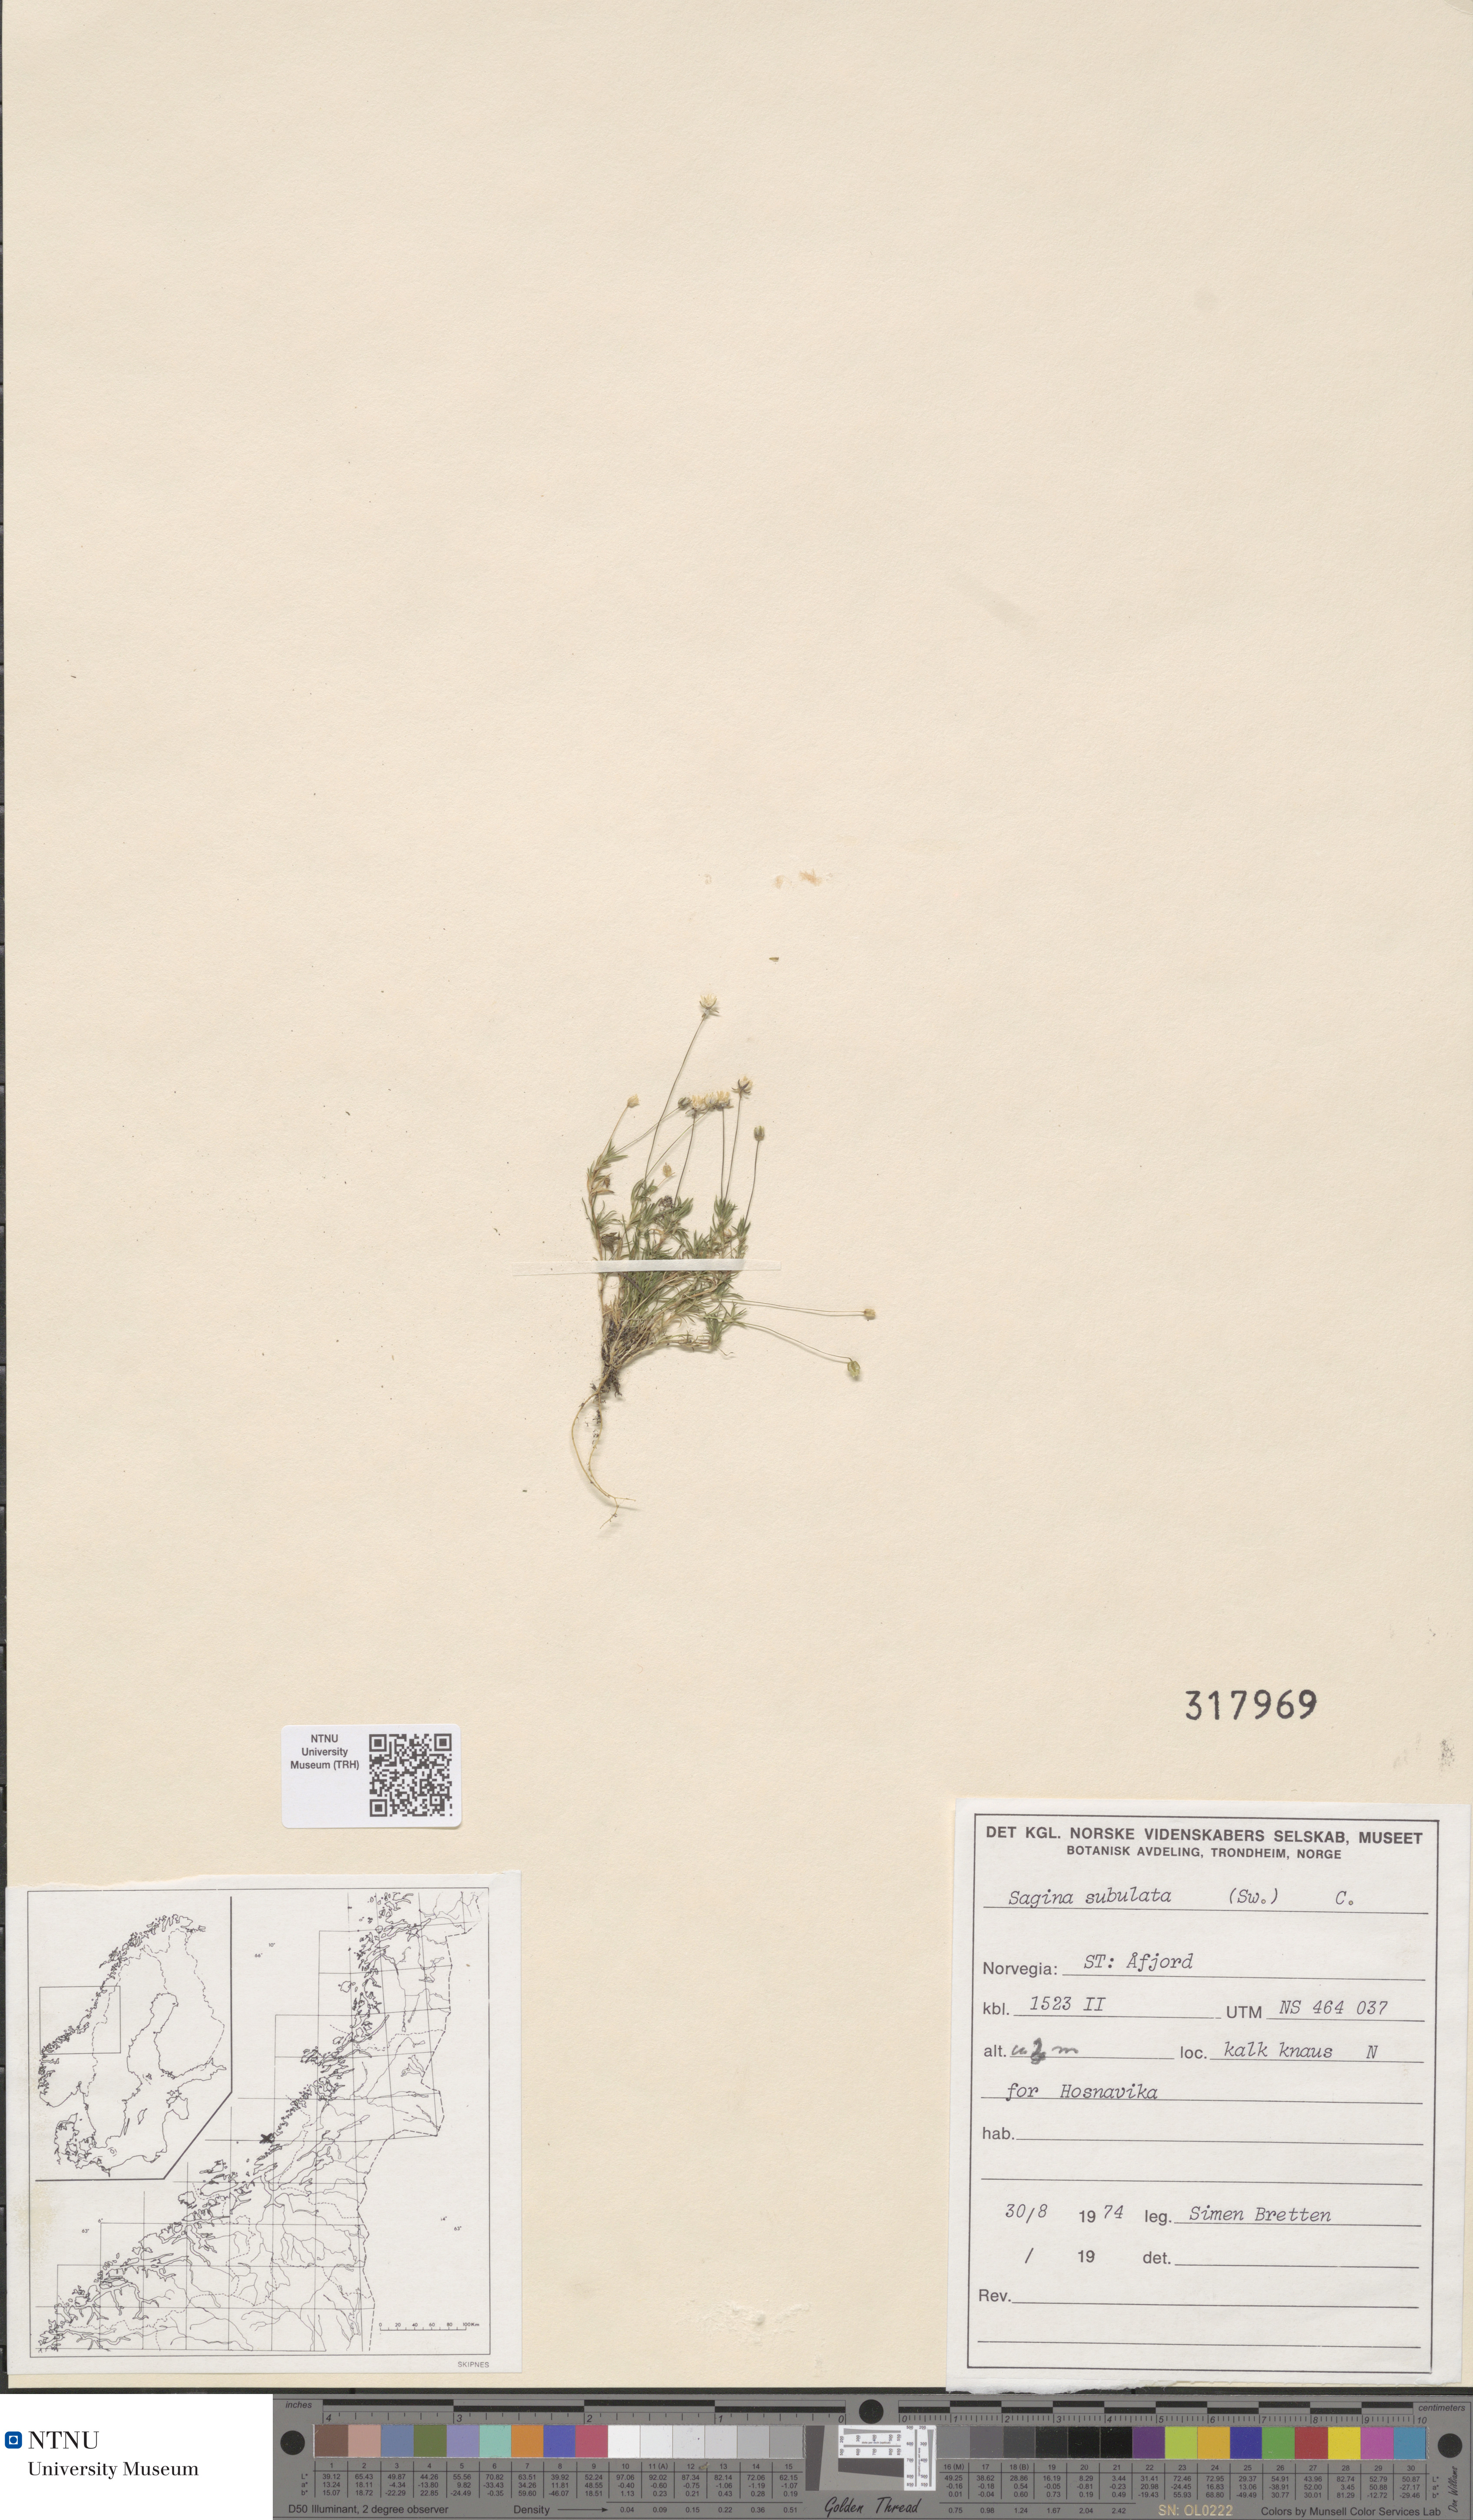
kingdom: Plantae
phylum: Tracheophyta
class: Magnoliopsida
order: Caryophyllales
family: Caryophyllaceae
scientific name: Caryophyllaceae
